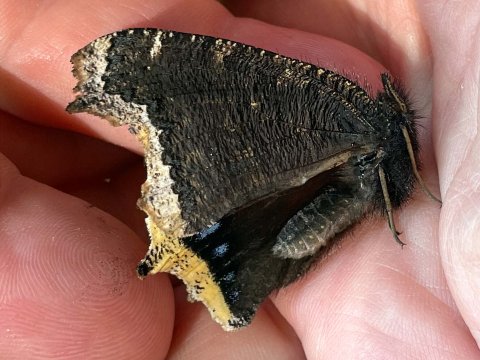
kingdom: Animalia
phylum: Arthropoda
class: Insecta
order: Lepidoptera
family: Nymphalidae
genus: Nymphalis
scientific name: Nymphalis antiopa
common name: Mourning Cloak
